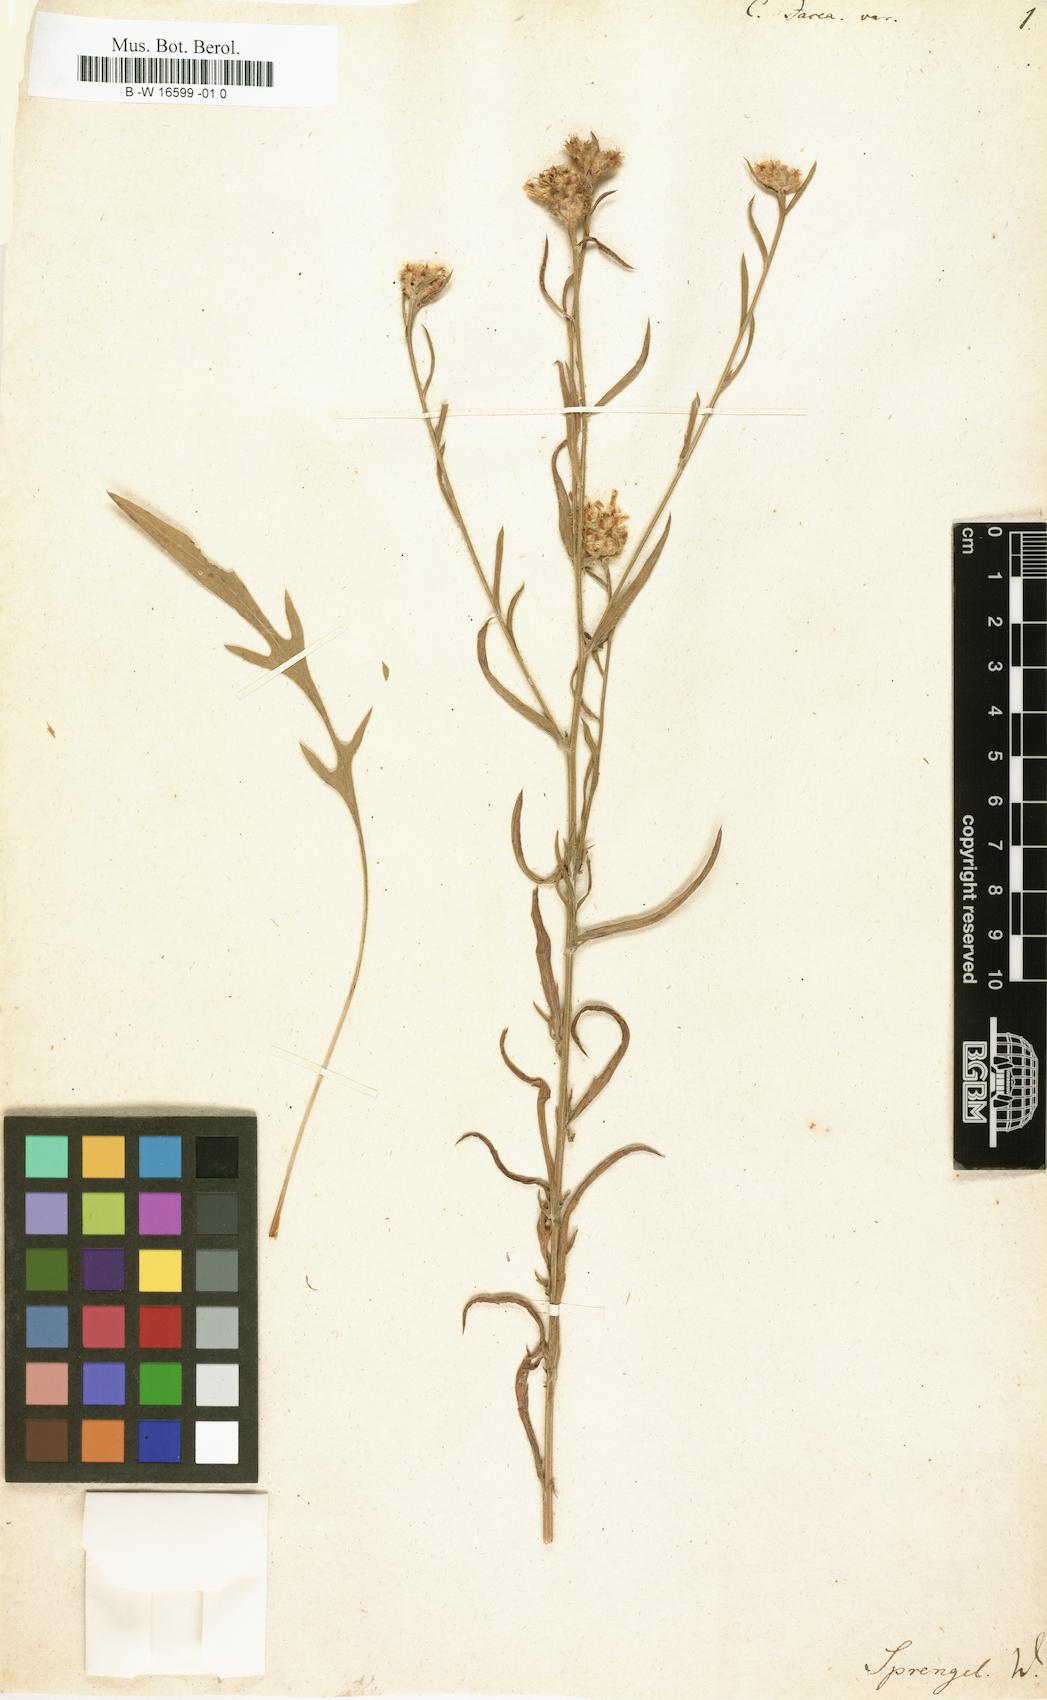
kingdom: Plantae
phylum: Tracheophyta
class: Magnoliopsida
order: Asterales
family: Asteraceae
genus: Centaurea
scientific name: Centaurea jacea
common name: Brown knapweed
